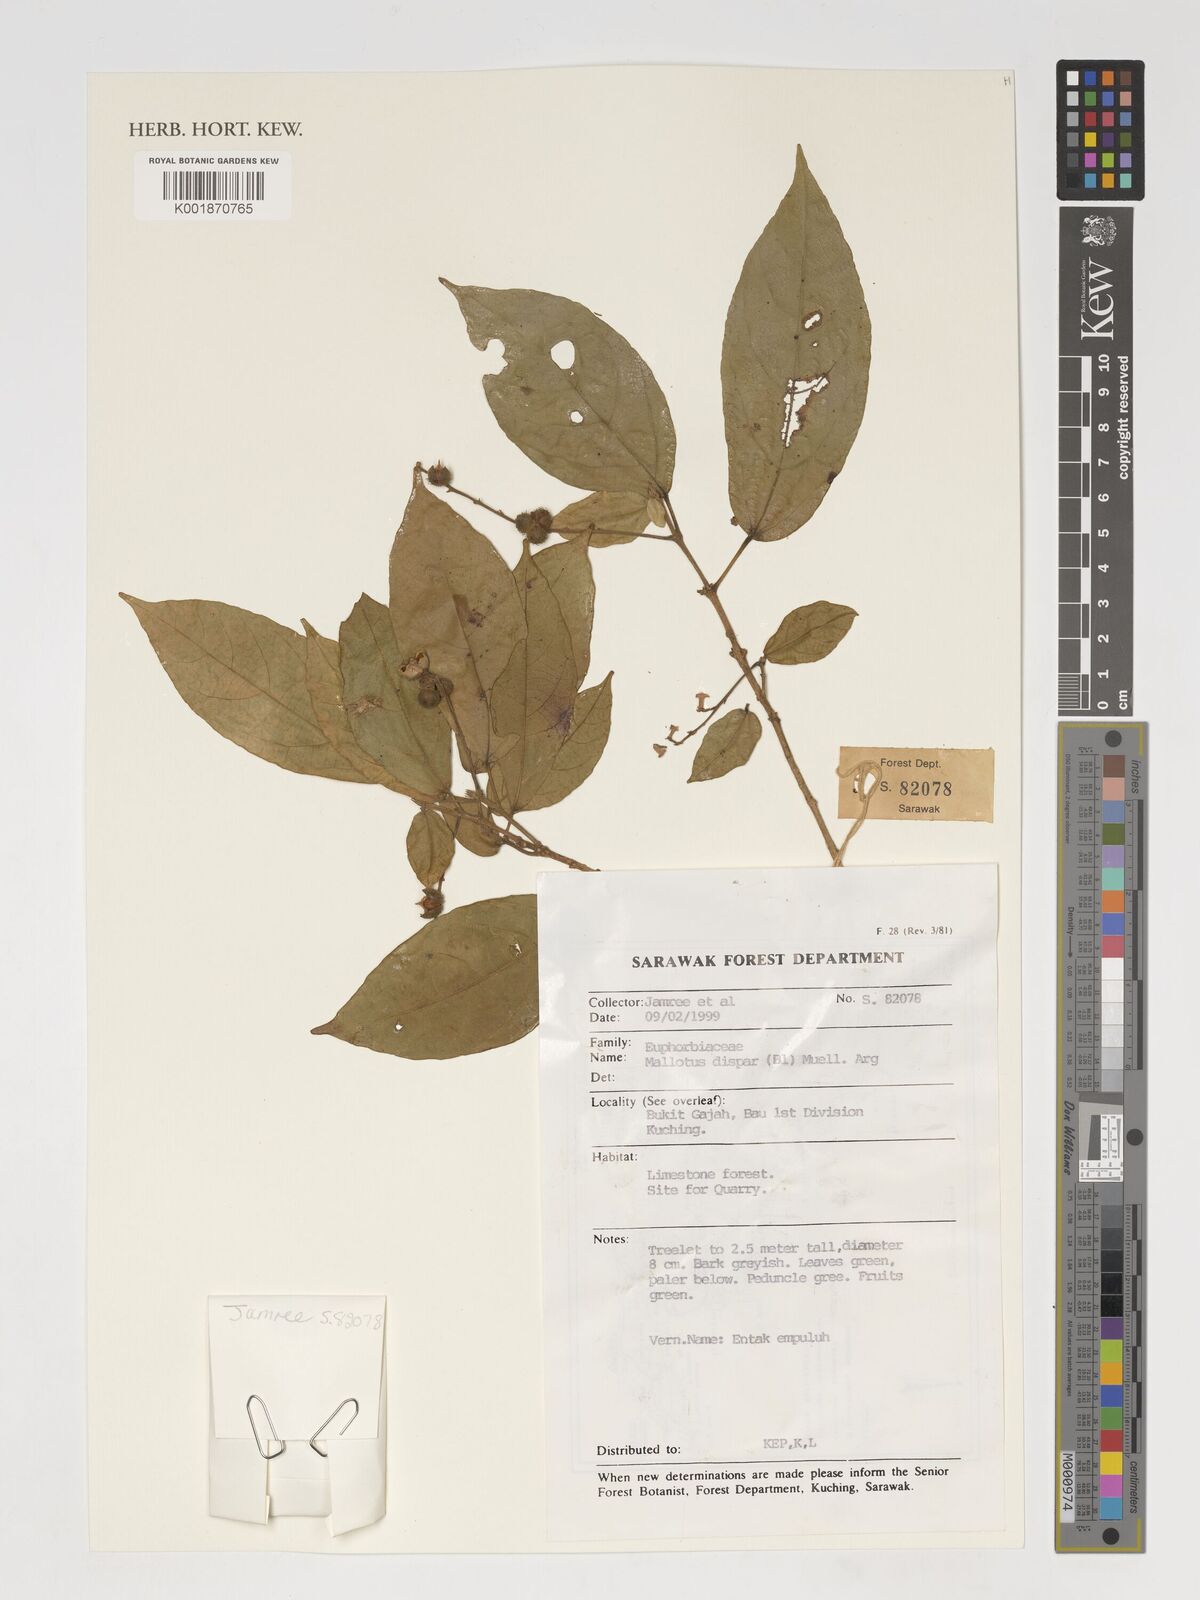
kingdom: Plantae
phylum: Tracheophyta
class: Magnoliopsida
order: Malpighiales
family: Euphorbiaceae
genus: Mallotus
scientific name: Mallotus dispar
